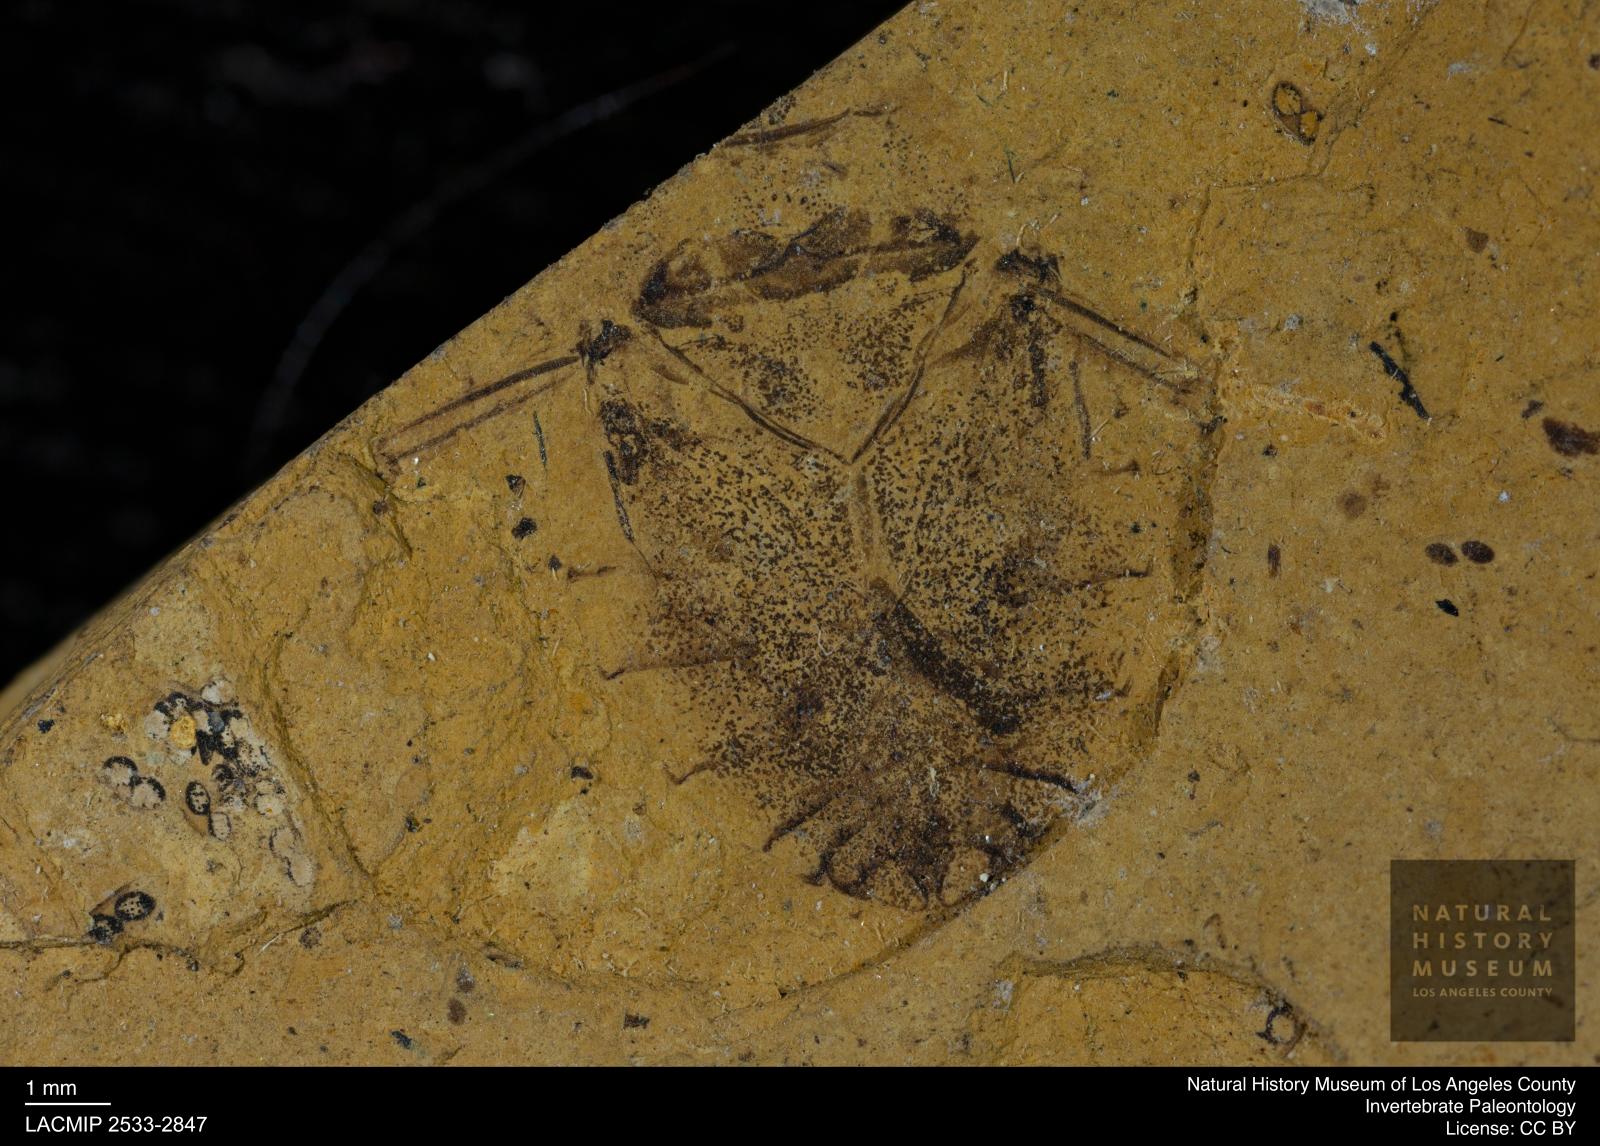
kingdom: Animalia
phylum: Arthropoda
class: Insecta
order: Hemiptera
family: Naucoridae
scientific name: Naucoridae
